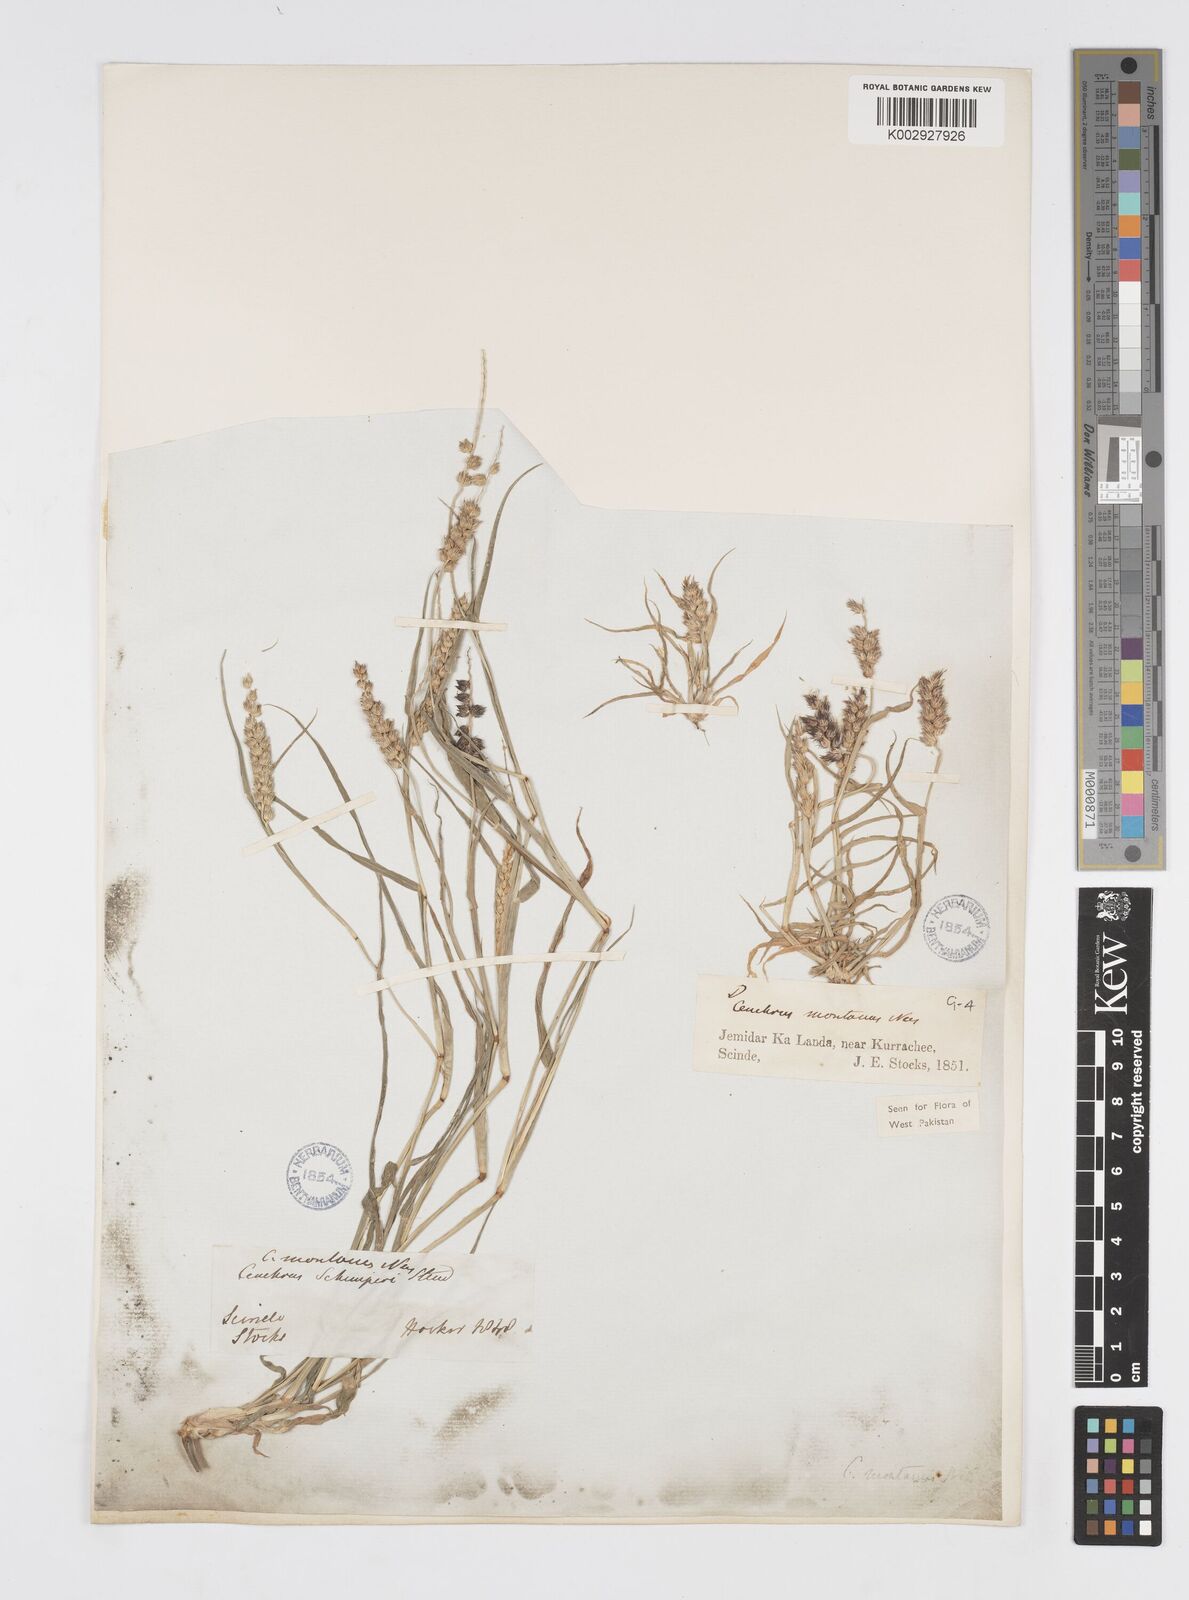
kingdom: Plantae
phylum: Tracheophyta
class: Liliopsida
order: Poales
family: Poaceae
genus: Cenchrus
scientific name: Cenchrus setigerus
